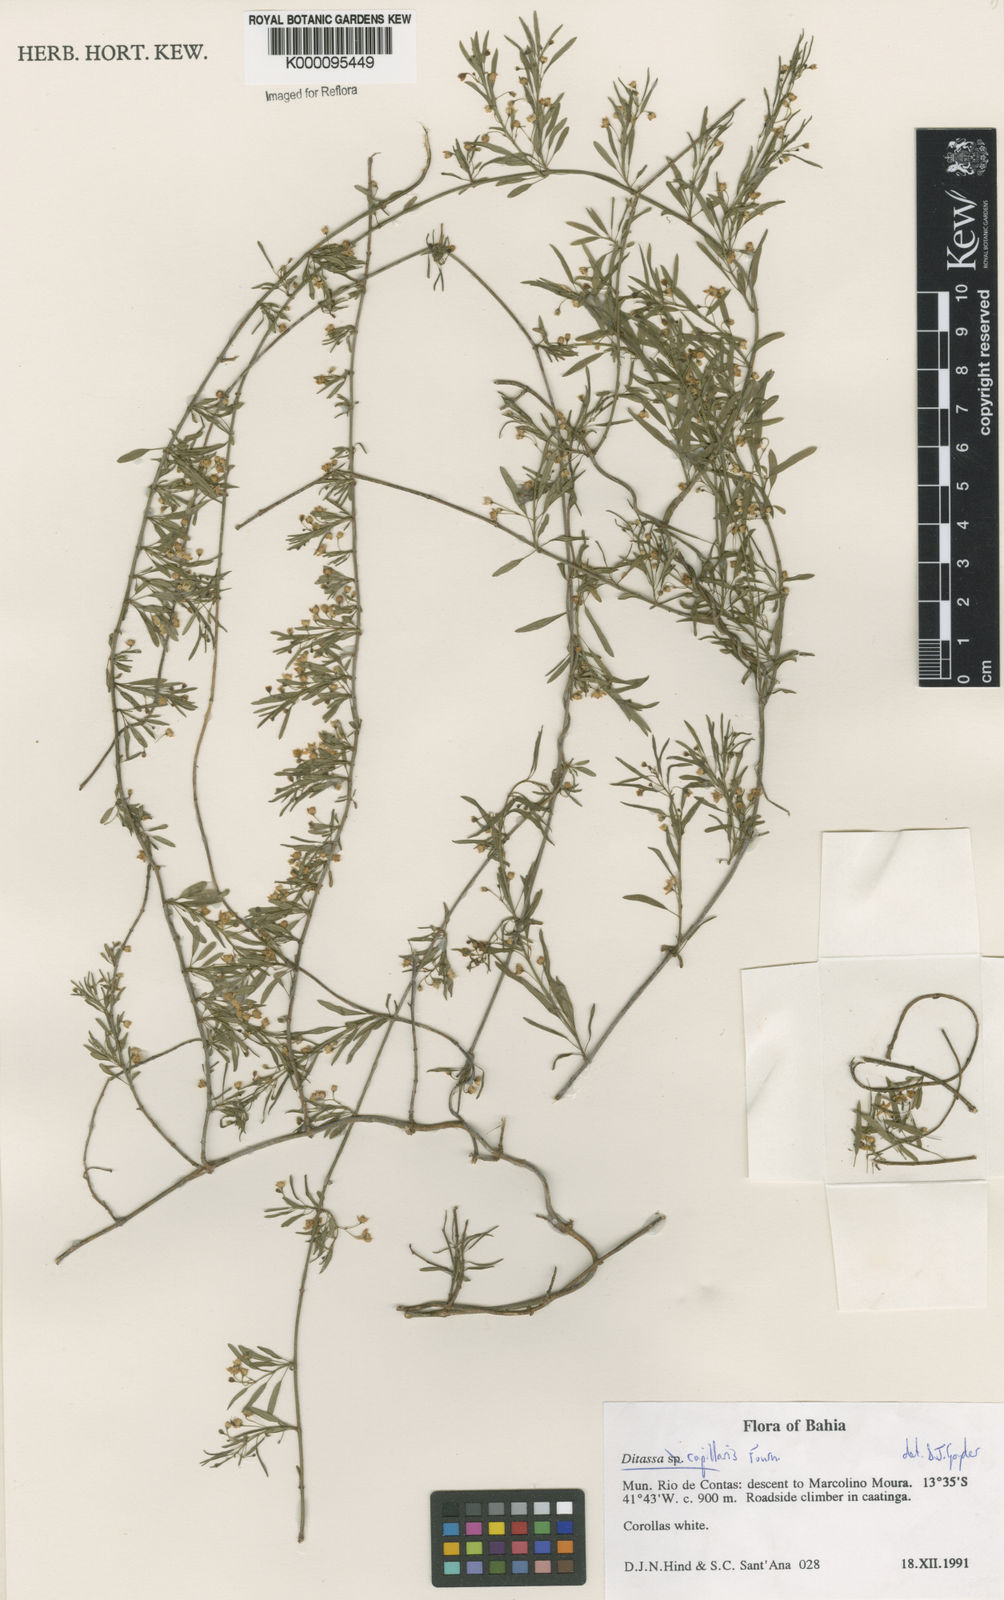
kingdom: Plantae
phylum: Tracheophyta
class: Magnoliopsida
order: Gentianales
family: Apocynaceae
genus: Ditassa
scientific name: Ditassa capillaris
